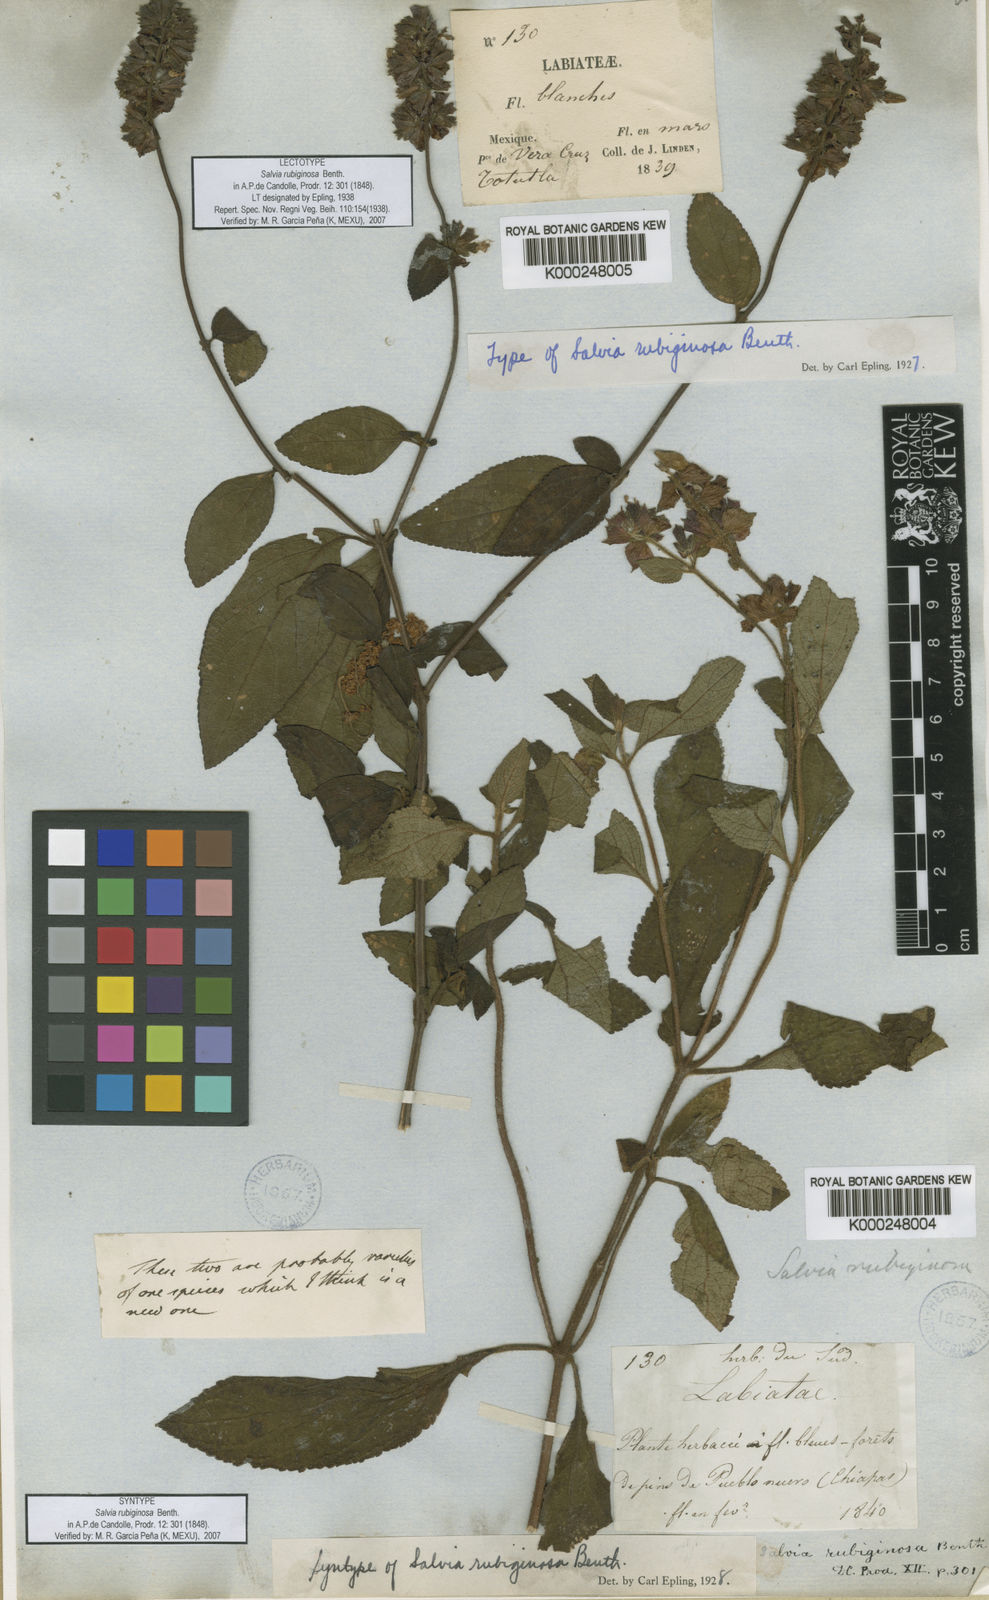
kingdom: Plantae
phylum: Tracheophyta
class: Magnoliopsida
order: Lamiales
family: Lamiaceae
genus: Salvia
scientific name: Salvia mocinoi
